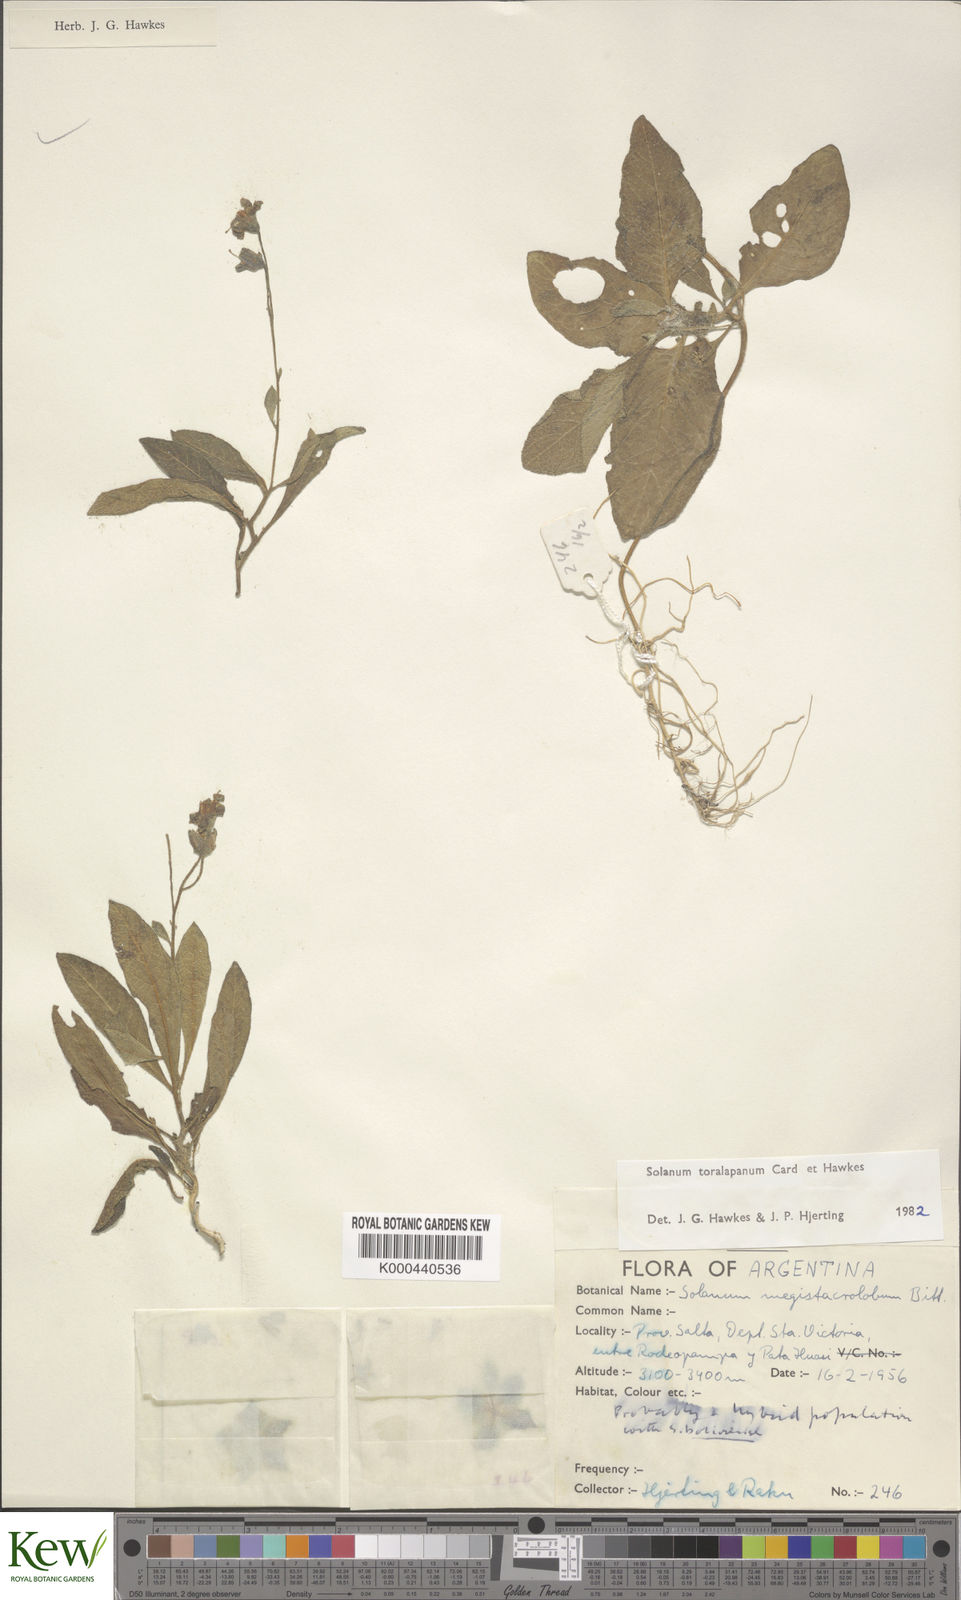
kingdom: Plantae
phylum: Tracheophyta
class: Magnoliopsida
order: Solanales
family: Solanaceae
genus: Solanum
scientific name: Solanum
